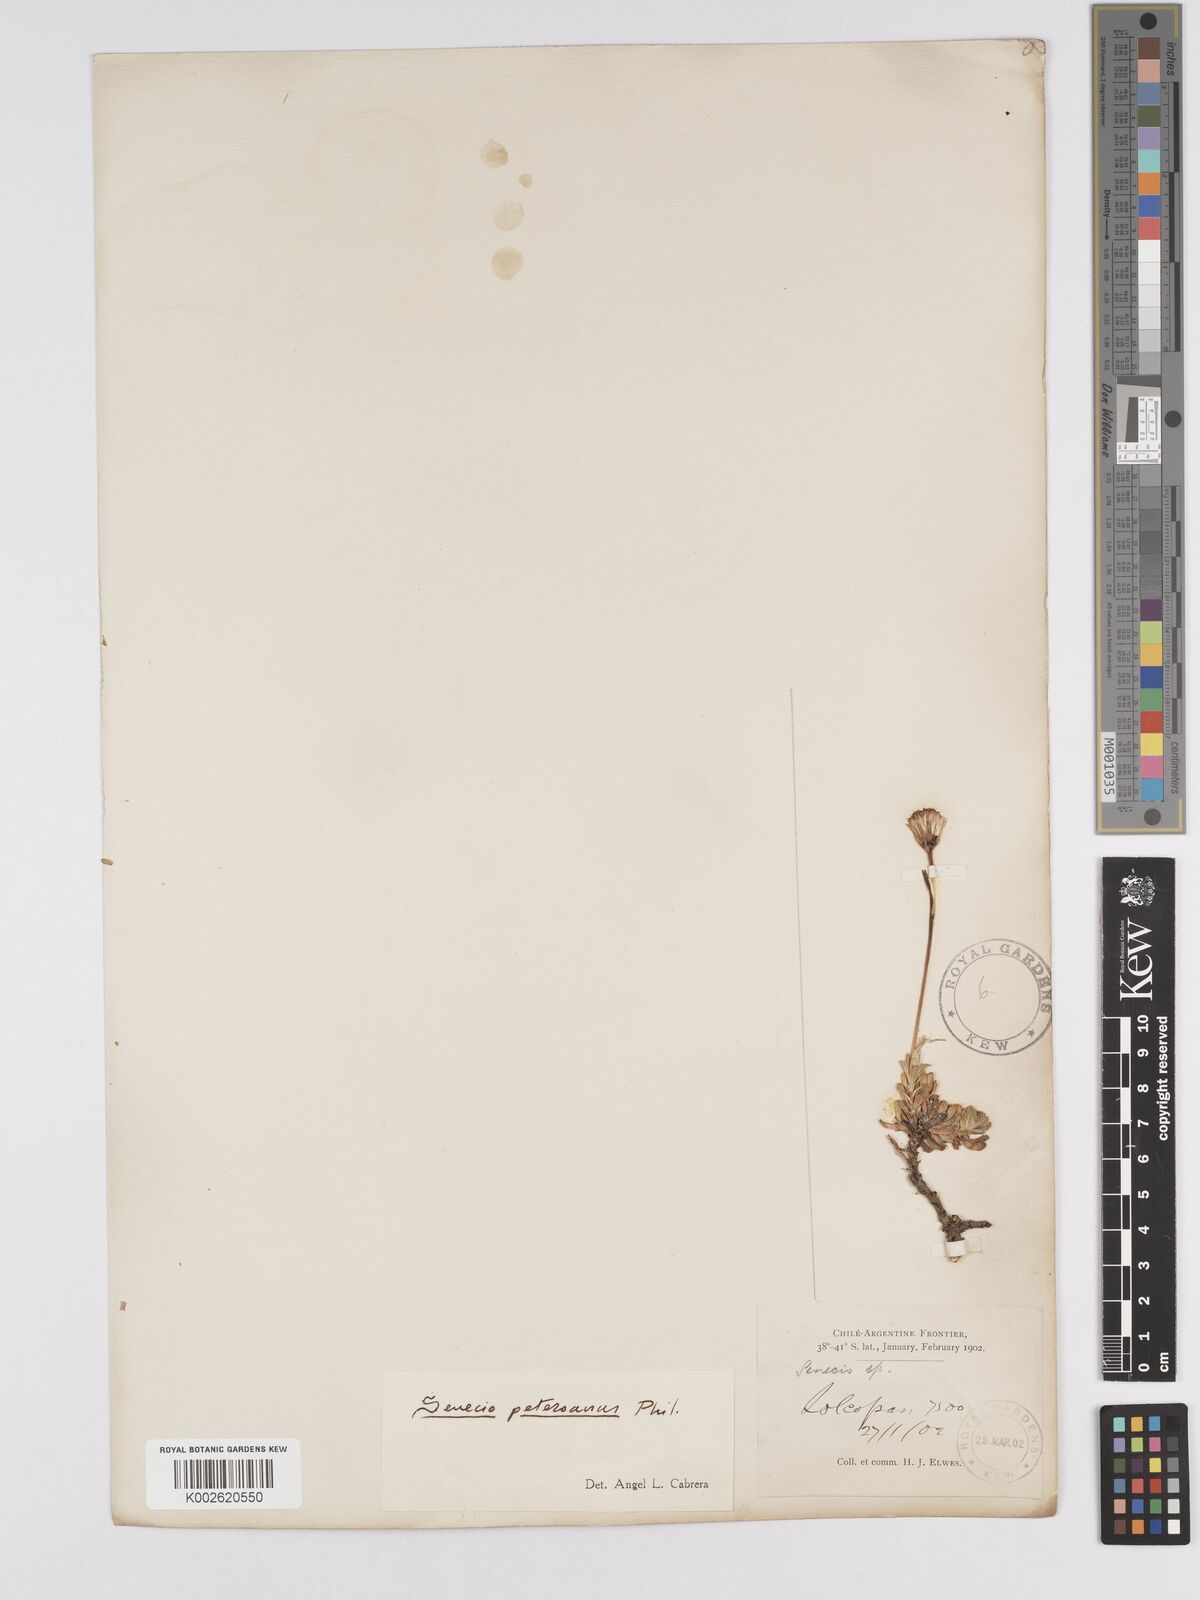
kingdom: Plantae
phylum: Tracheophyta
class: Magnoliopsida
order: Asterales
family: Asteraceae
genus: Senecio
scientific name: Senecio peteroanus
